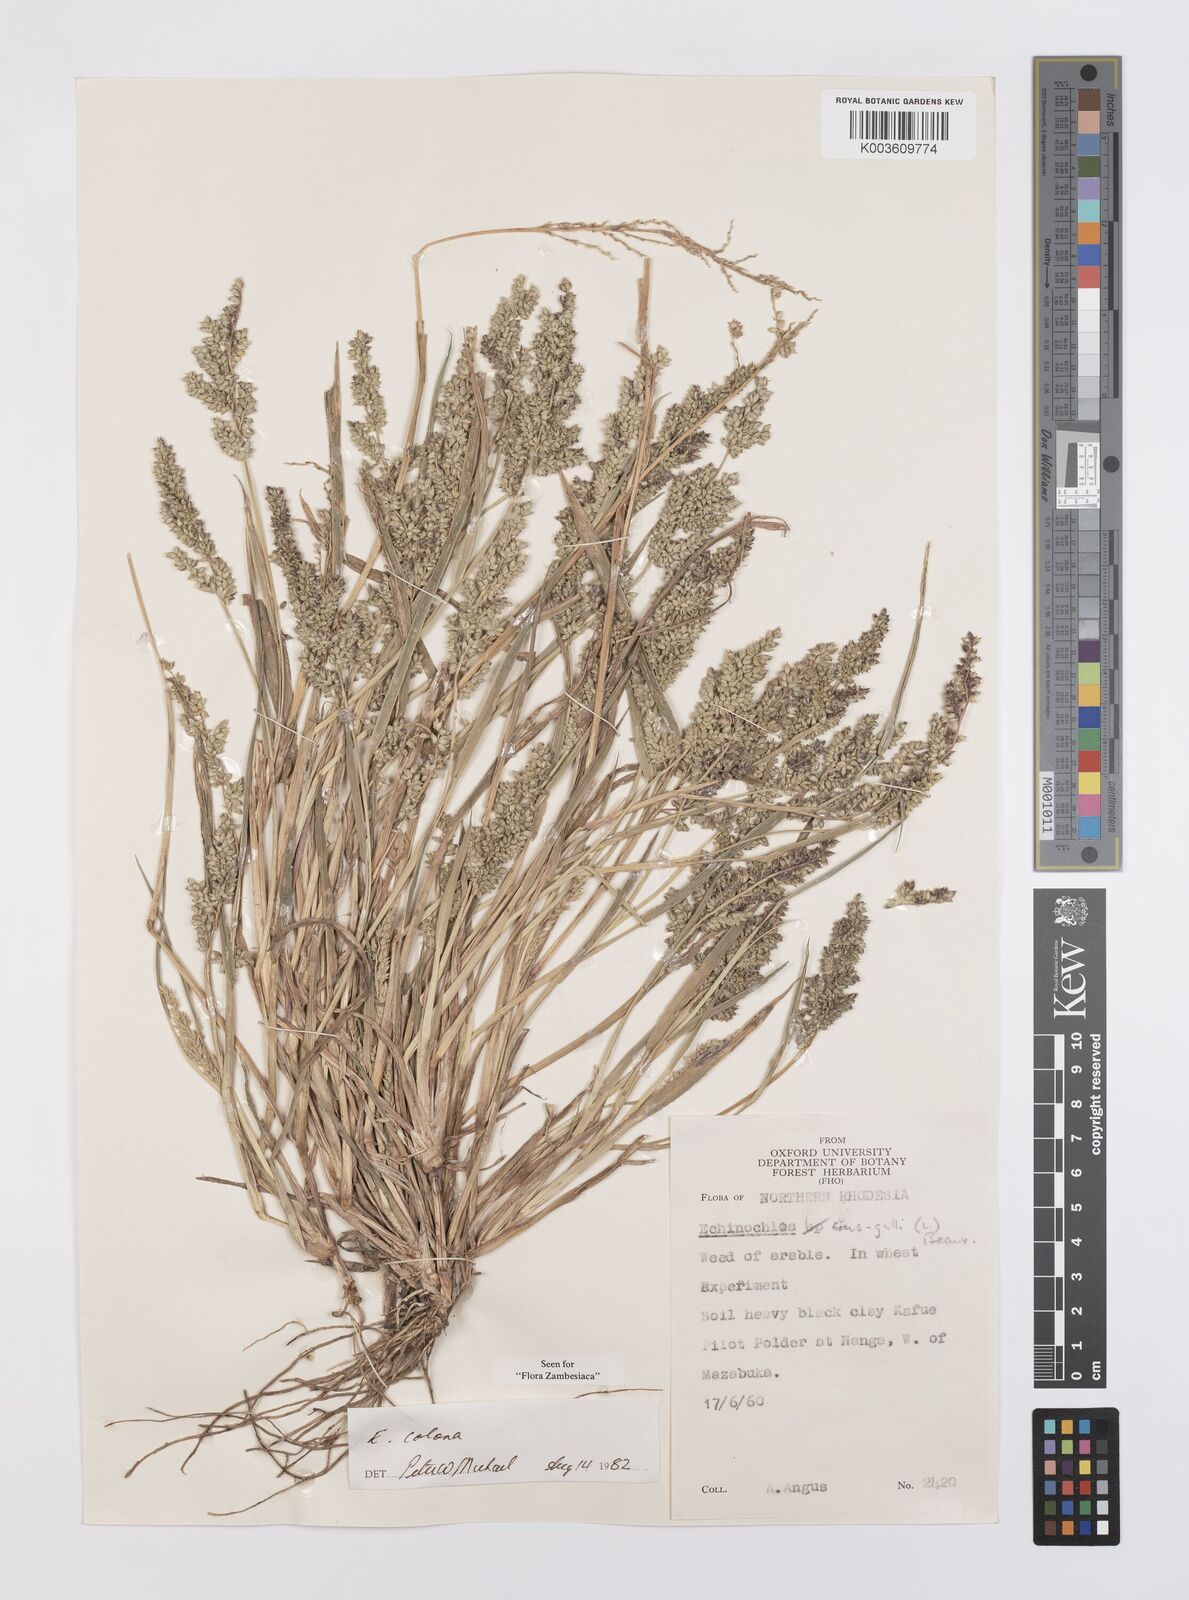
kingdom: Plantae
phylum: Tracheophyta
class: Liliopsida
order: Poales
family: Poaceae
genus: Echinochloa
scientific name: Echinochloa colonum
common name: Jungle rice
